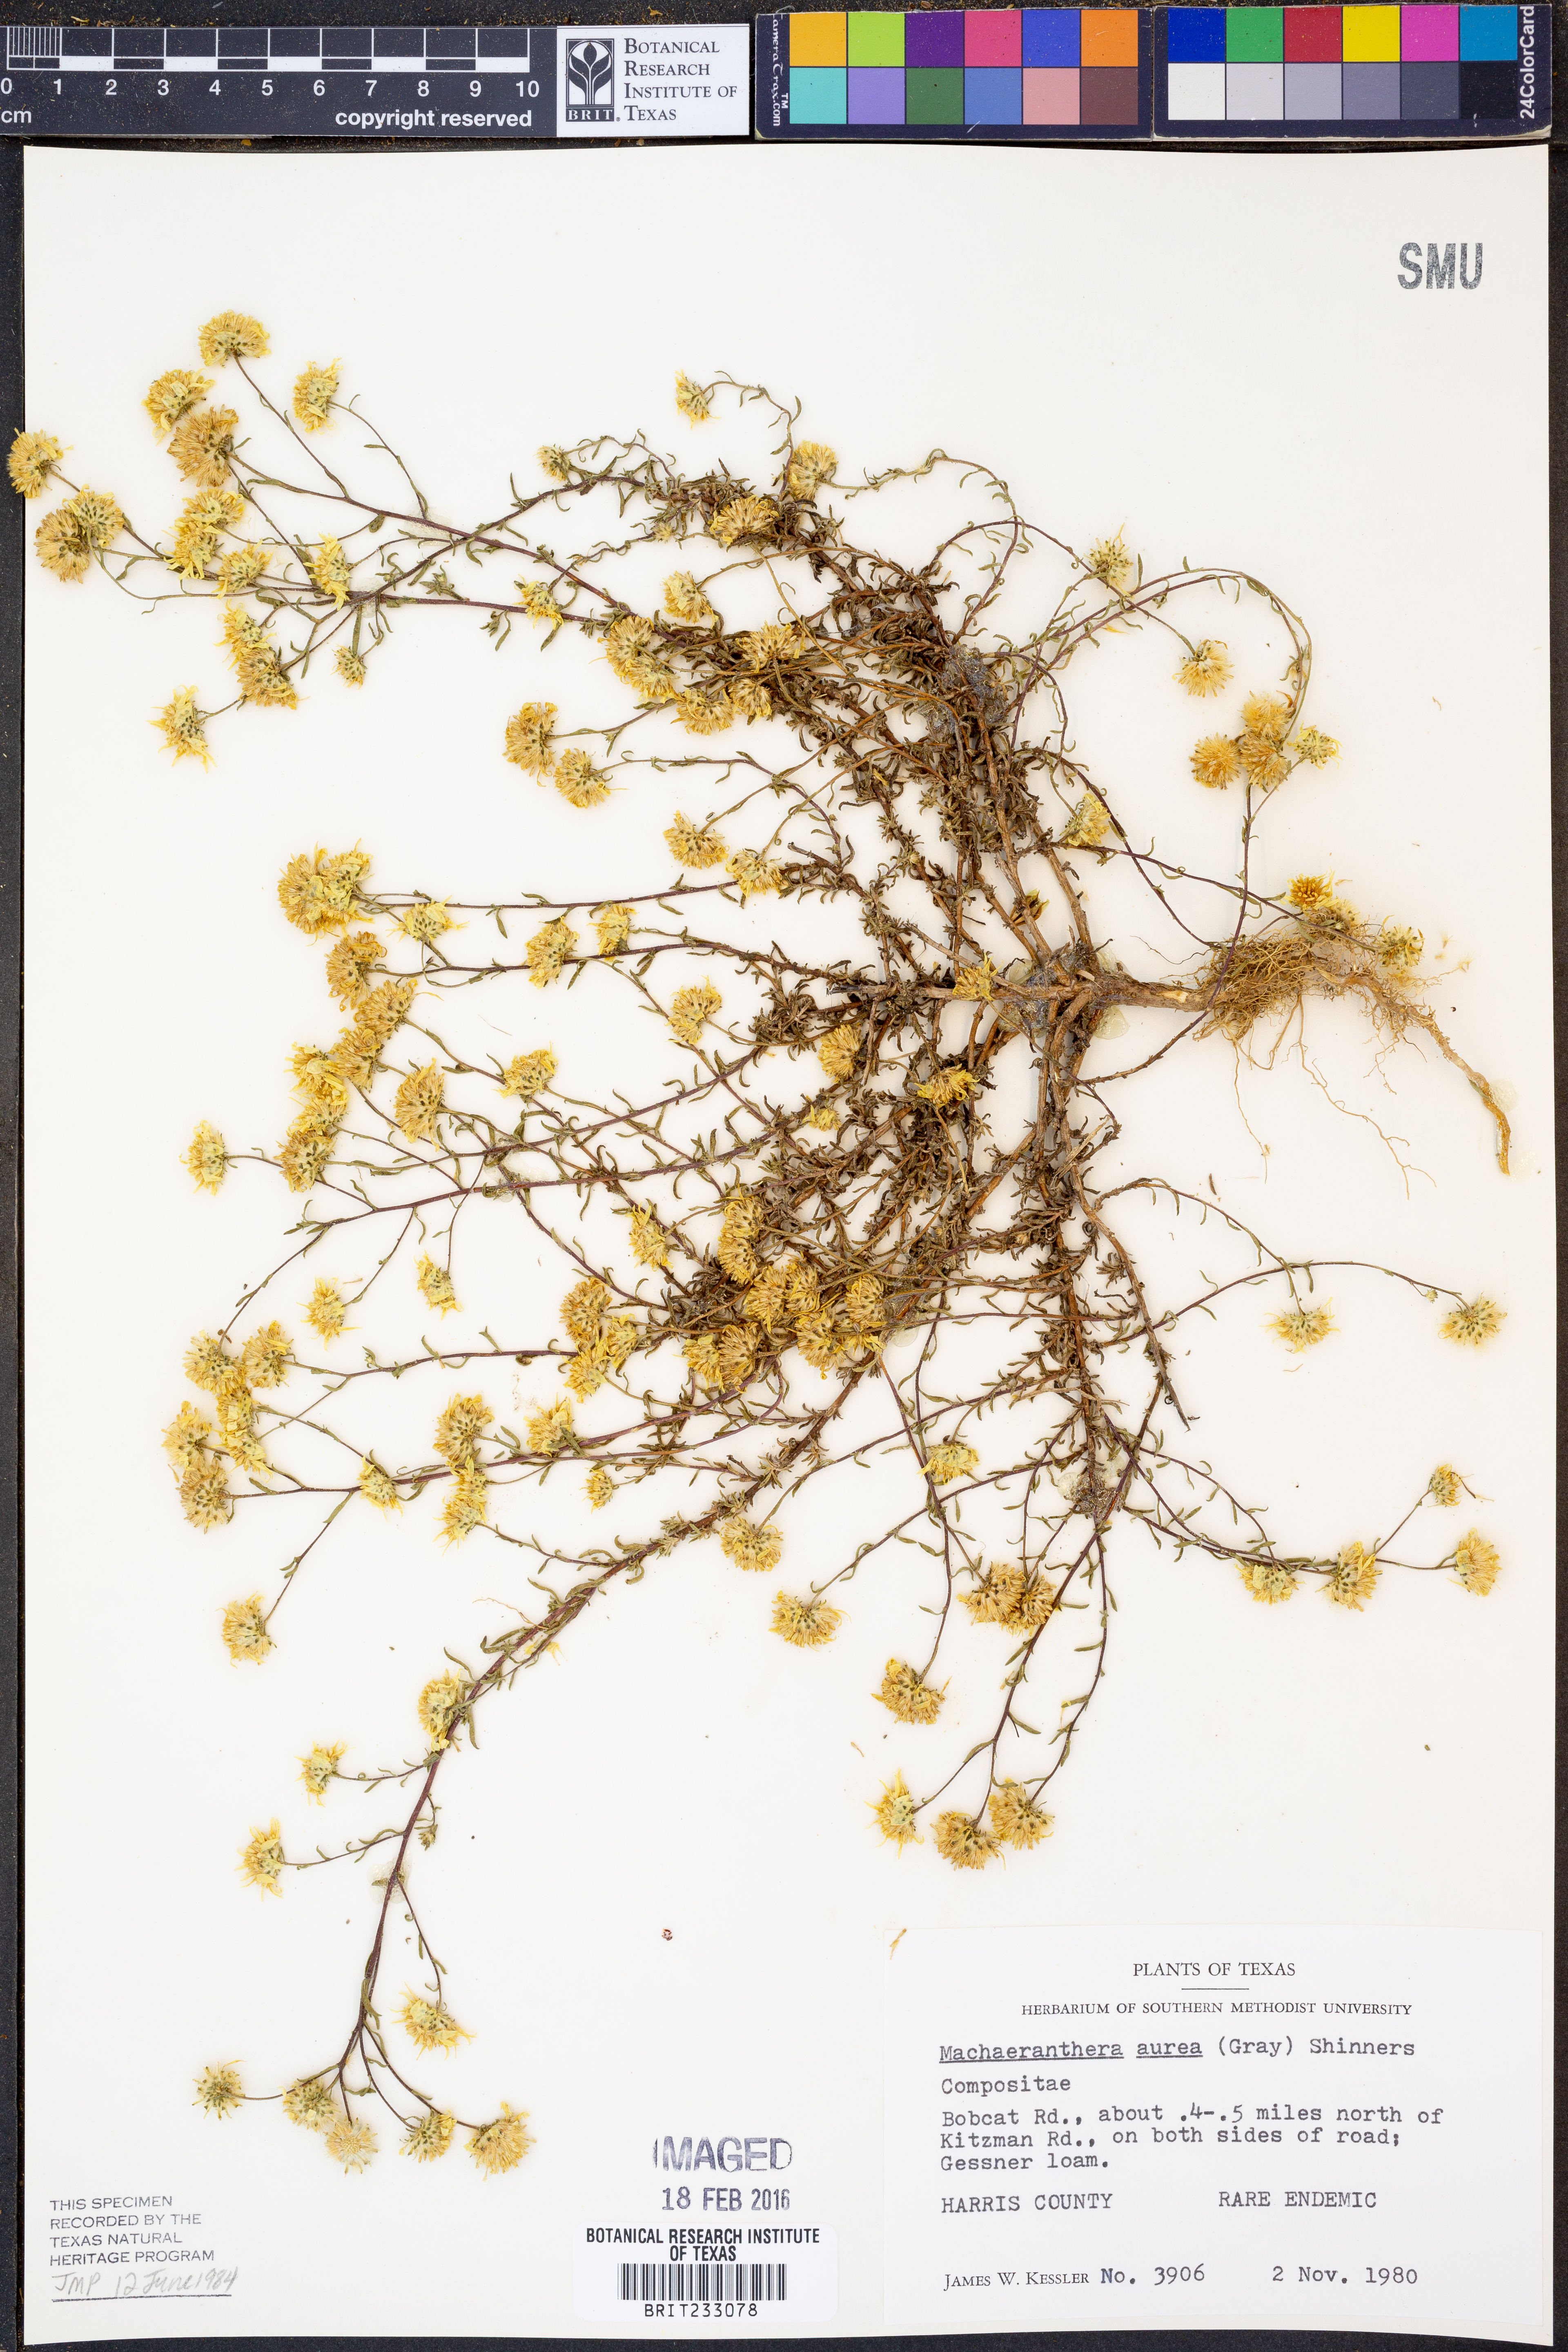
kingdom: Plantae
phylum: Tracheophyta
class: Magnoliopsida
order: Asterales
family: Asteraceae
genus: Rayjacksonia
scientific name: Rayjacksonia aurea
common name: Houston camphor daisy
